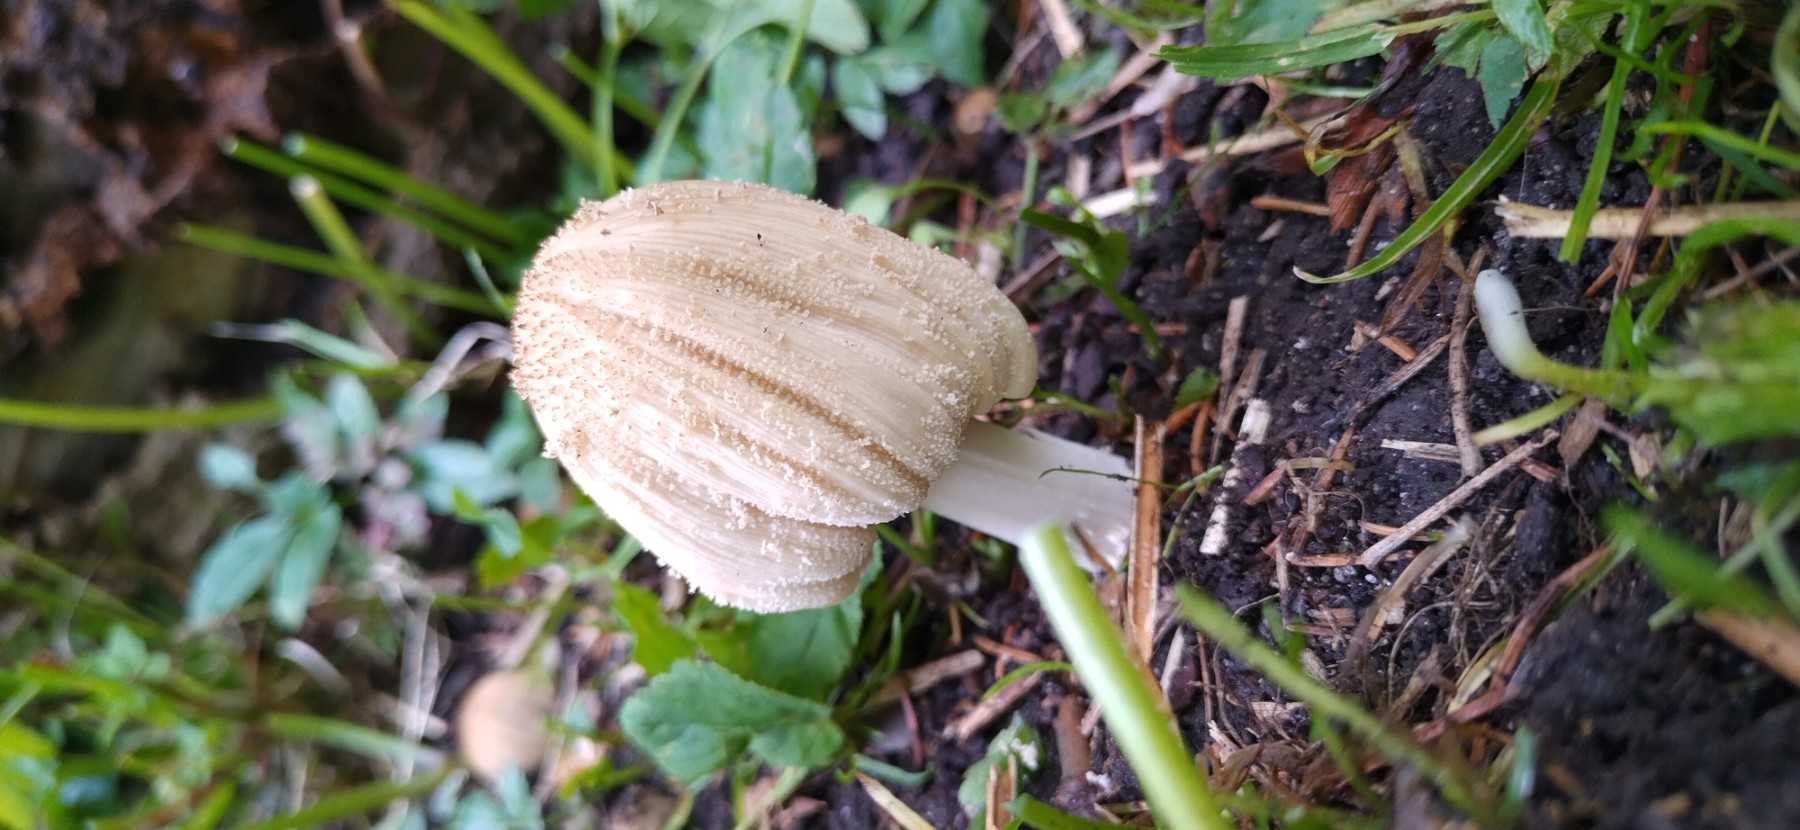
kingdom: Fungi
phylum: Basidiomycota
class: Agaricomycetes
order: Agaricales
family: Psathyrellaceae
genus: Coprinellus
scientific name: Coprinellus
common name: blækhat
